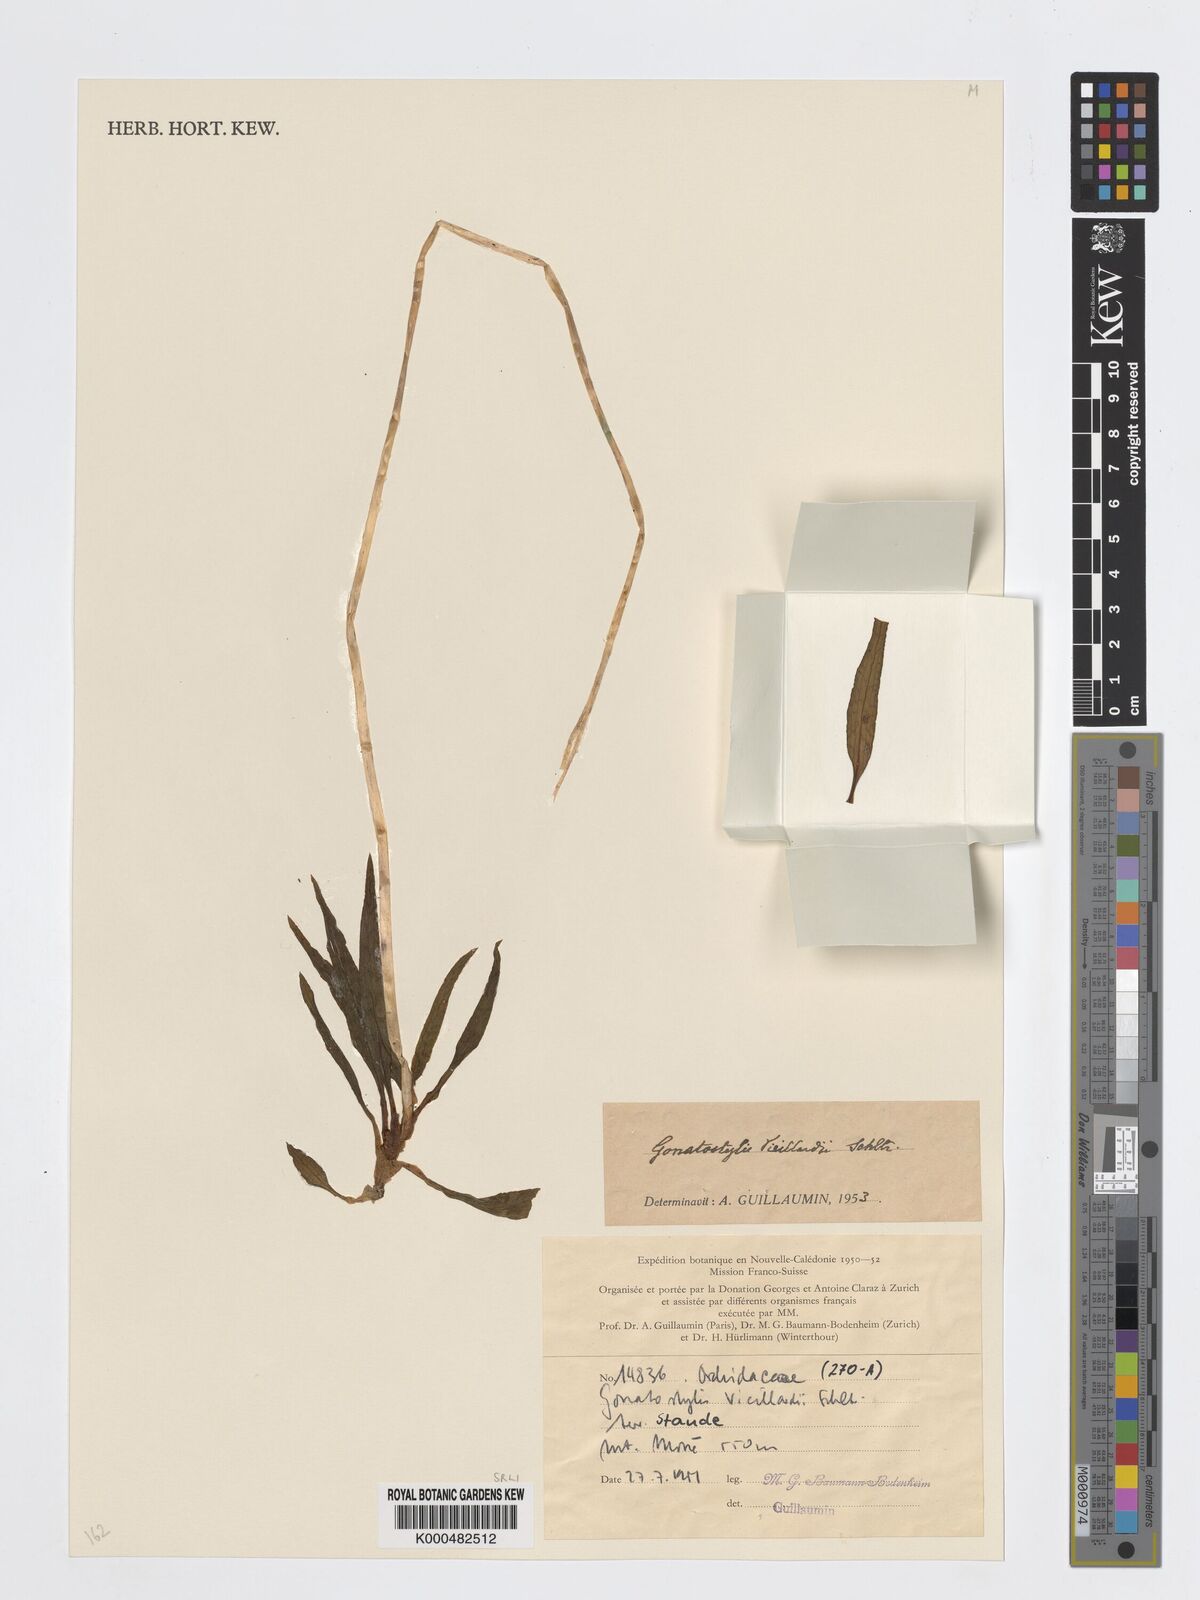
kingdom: Plantae
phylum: Tracheophyta
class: Liliopsida
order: Asparagales
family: Orchidaceae
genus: Gonatostylis
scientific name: Gonatostylis vieillardii
